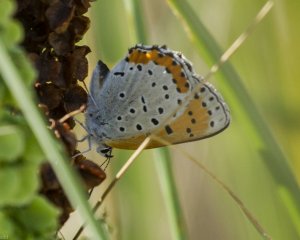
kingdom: Animalia
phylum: Arthropoda
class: Insecta
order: Lepidoptera
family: Sesiidae
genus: Sesia
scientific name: Sesia Lycaena hyllus
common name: Bronze Copper
